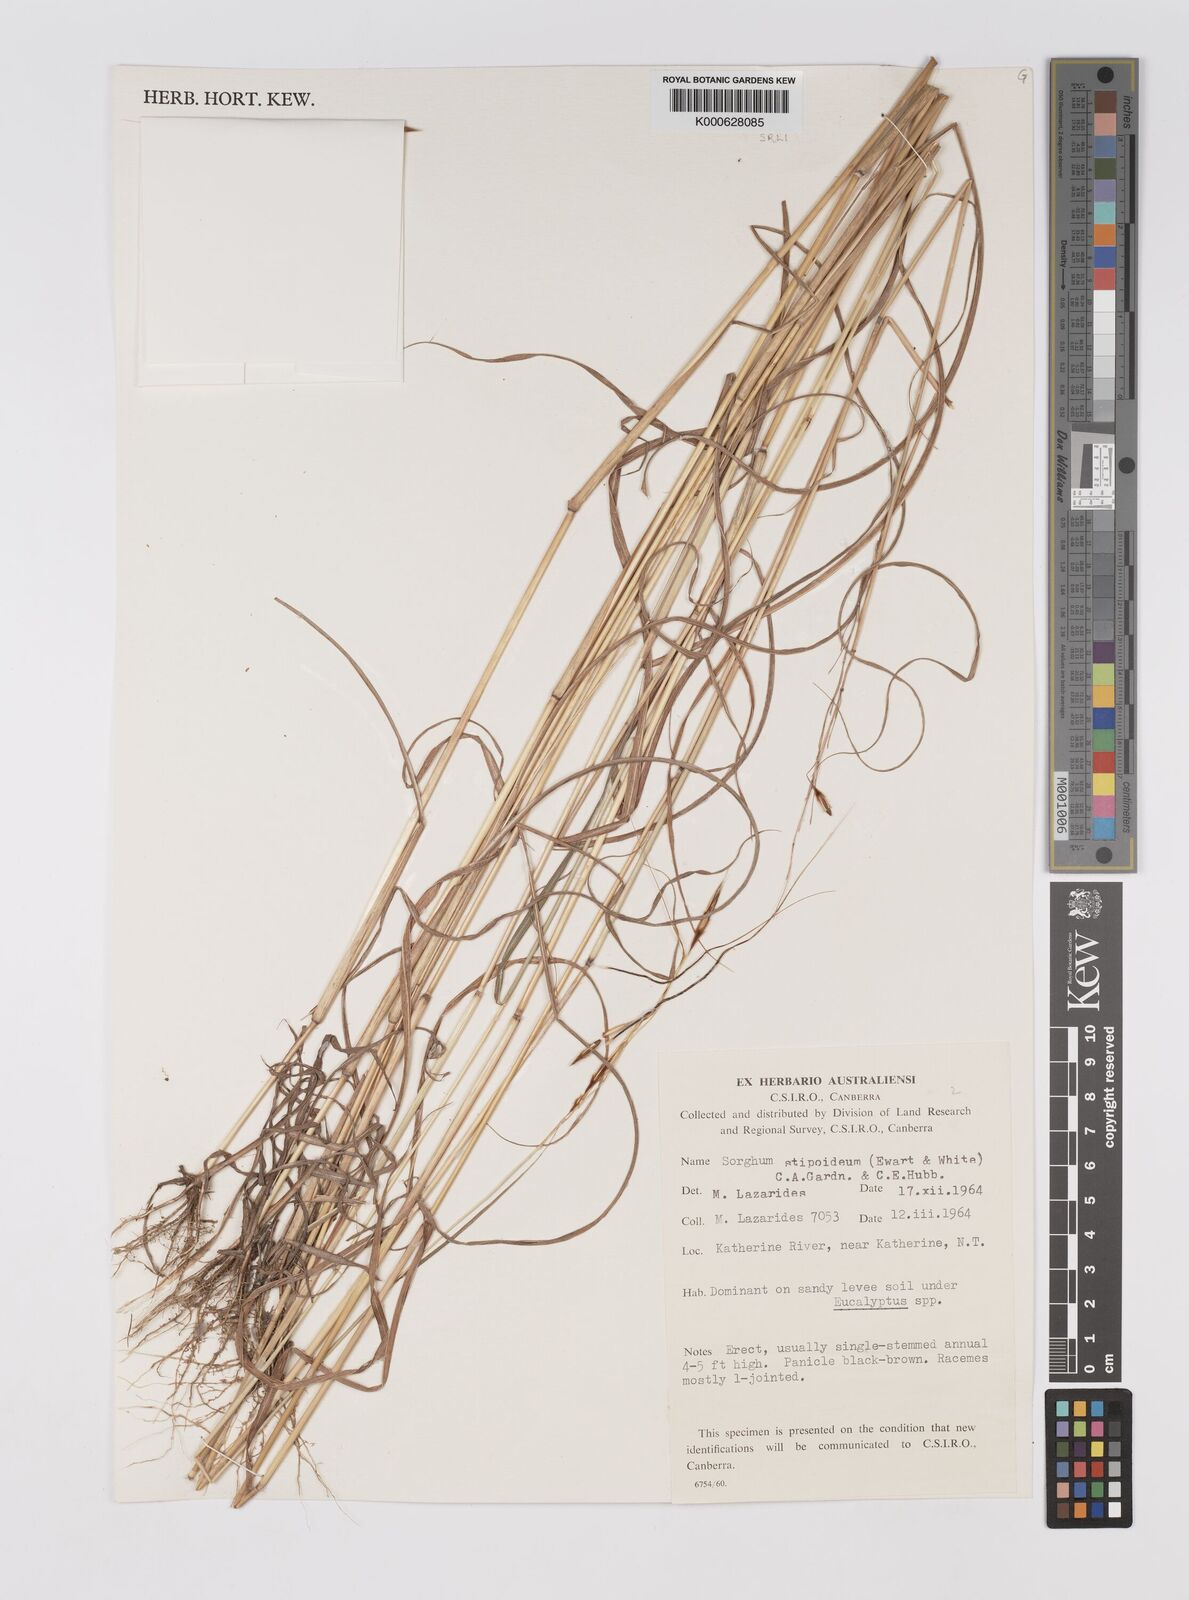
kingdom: Plantae
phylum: Tracheophyta
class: Liliopsida
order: Poales
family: Poaceae
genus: Sarga
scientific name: Sarga stipoidea
